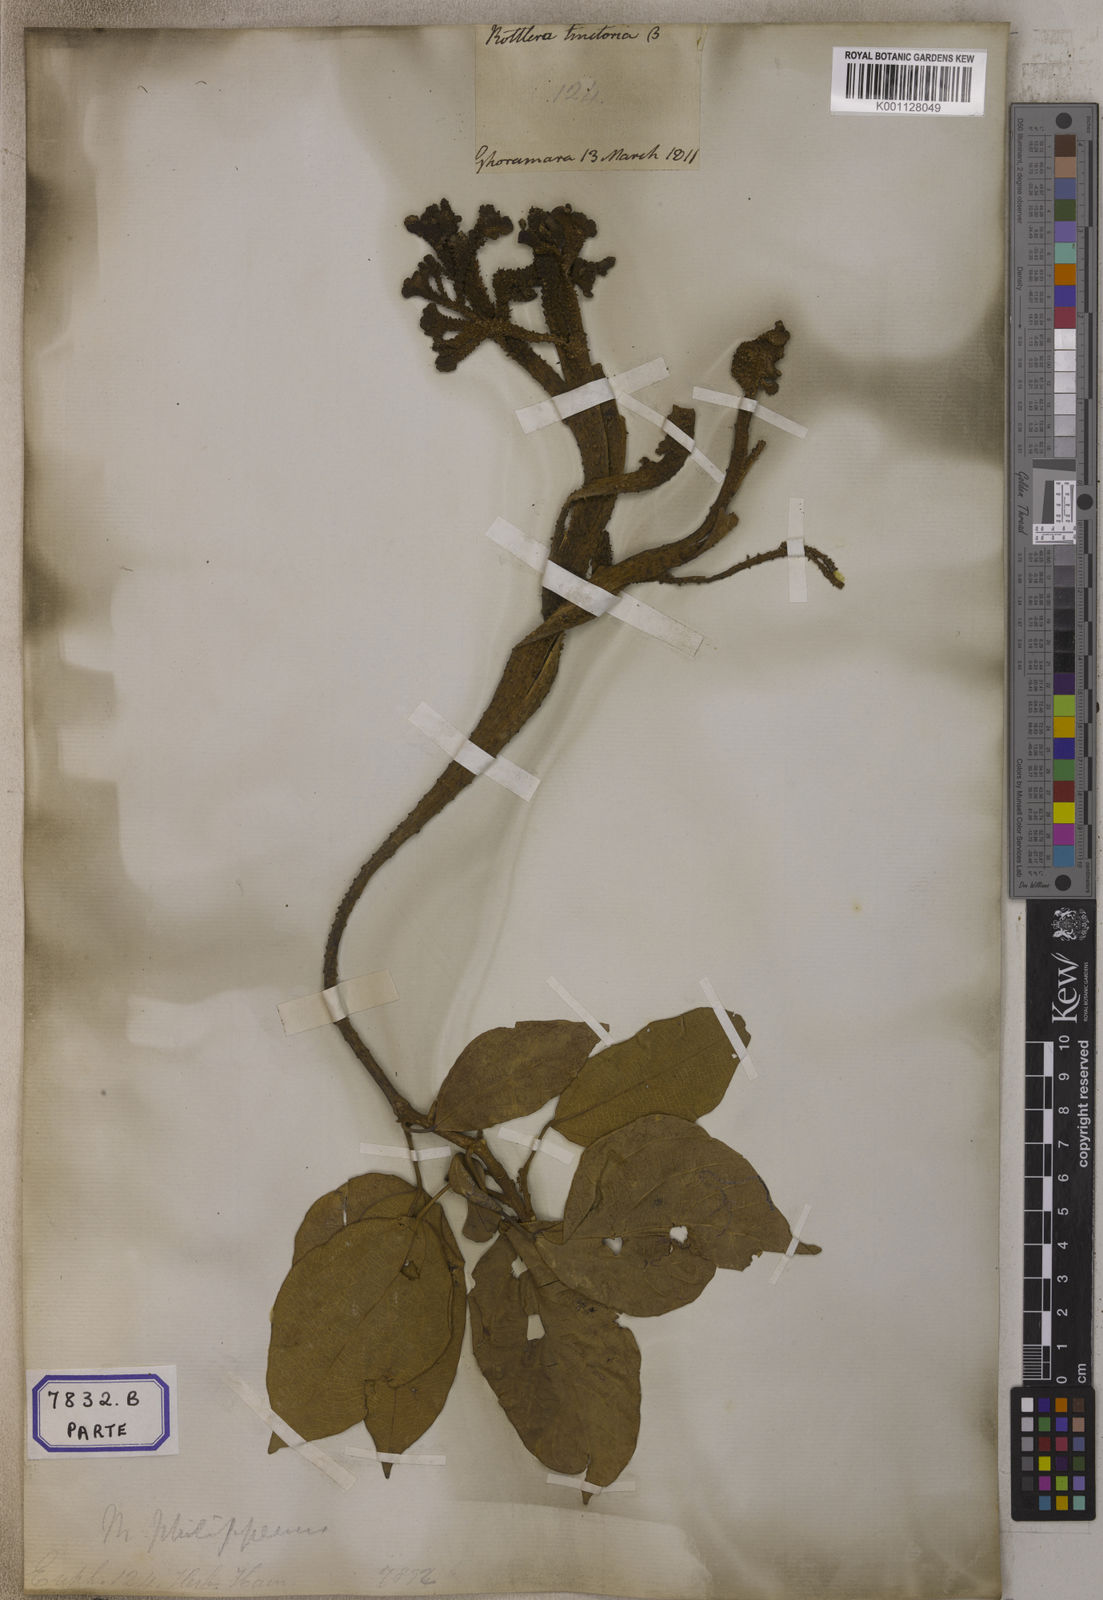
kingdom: Plantae
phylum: Tracheophyta
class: Magnoliopsida
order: Malpighiales
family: Euphorbiaceae
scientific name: Euphorbiaceae
